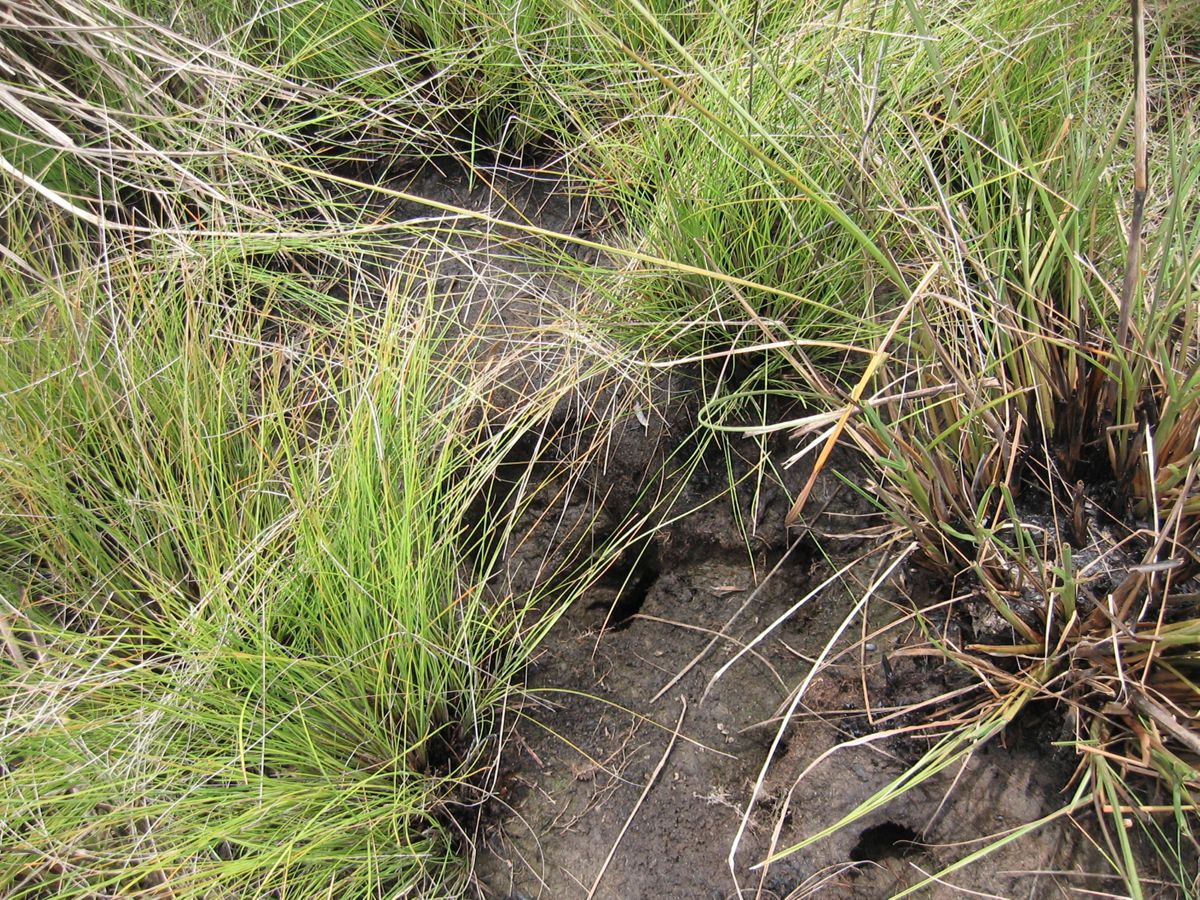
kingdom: Plantae
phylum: Tracheophyta
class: Liliopsida
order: Poales
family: Cyperaceae
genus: Fimbristylis
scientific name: Fimbristylis spadicea
